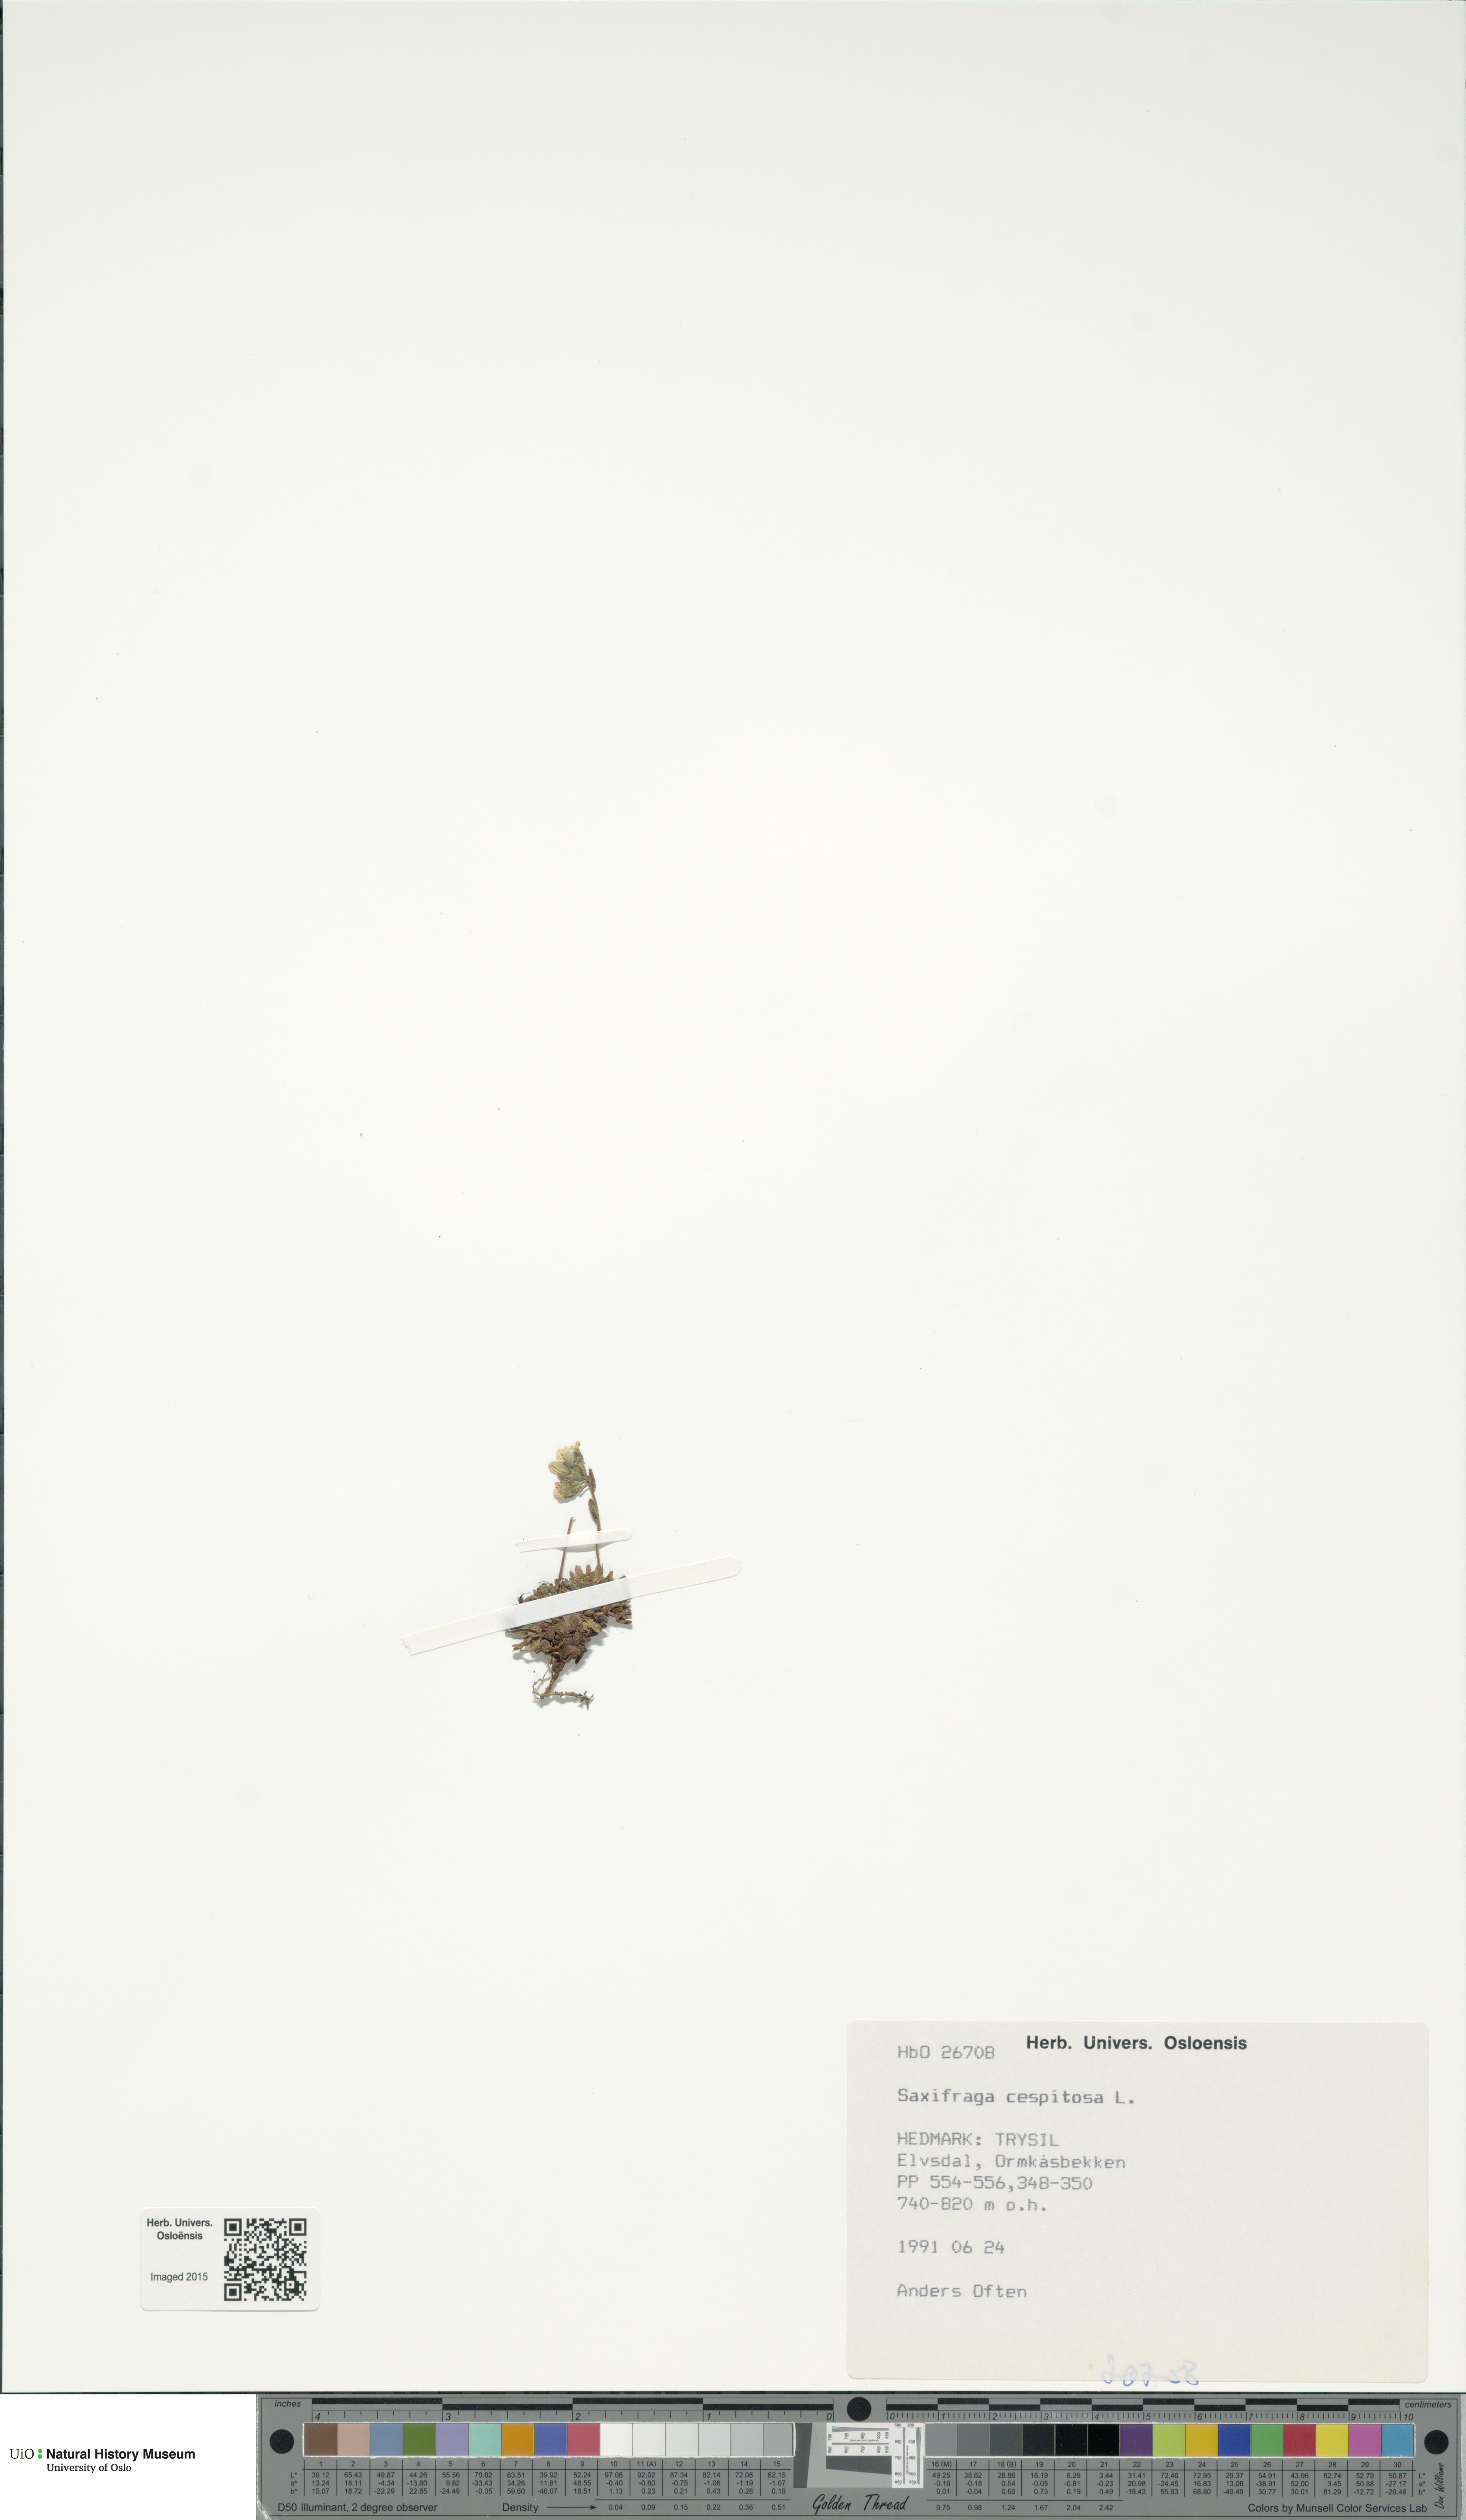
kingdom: Plantae
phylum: Tracheophyta
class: Magnoliopsida
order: Saxifragales
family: Saxifragaceae
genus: Saxifraga
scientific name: Saxifraga cespitosa
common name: Tufted saxifrage
